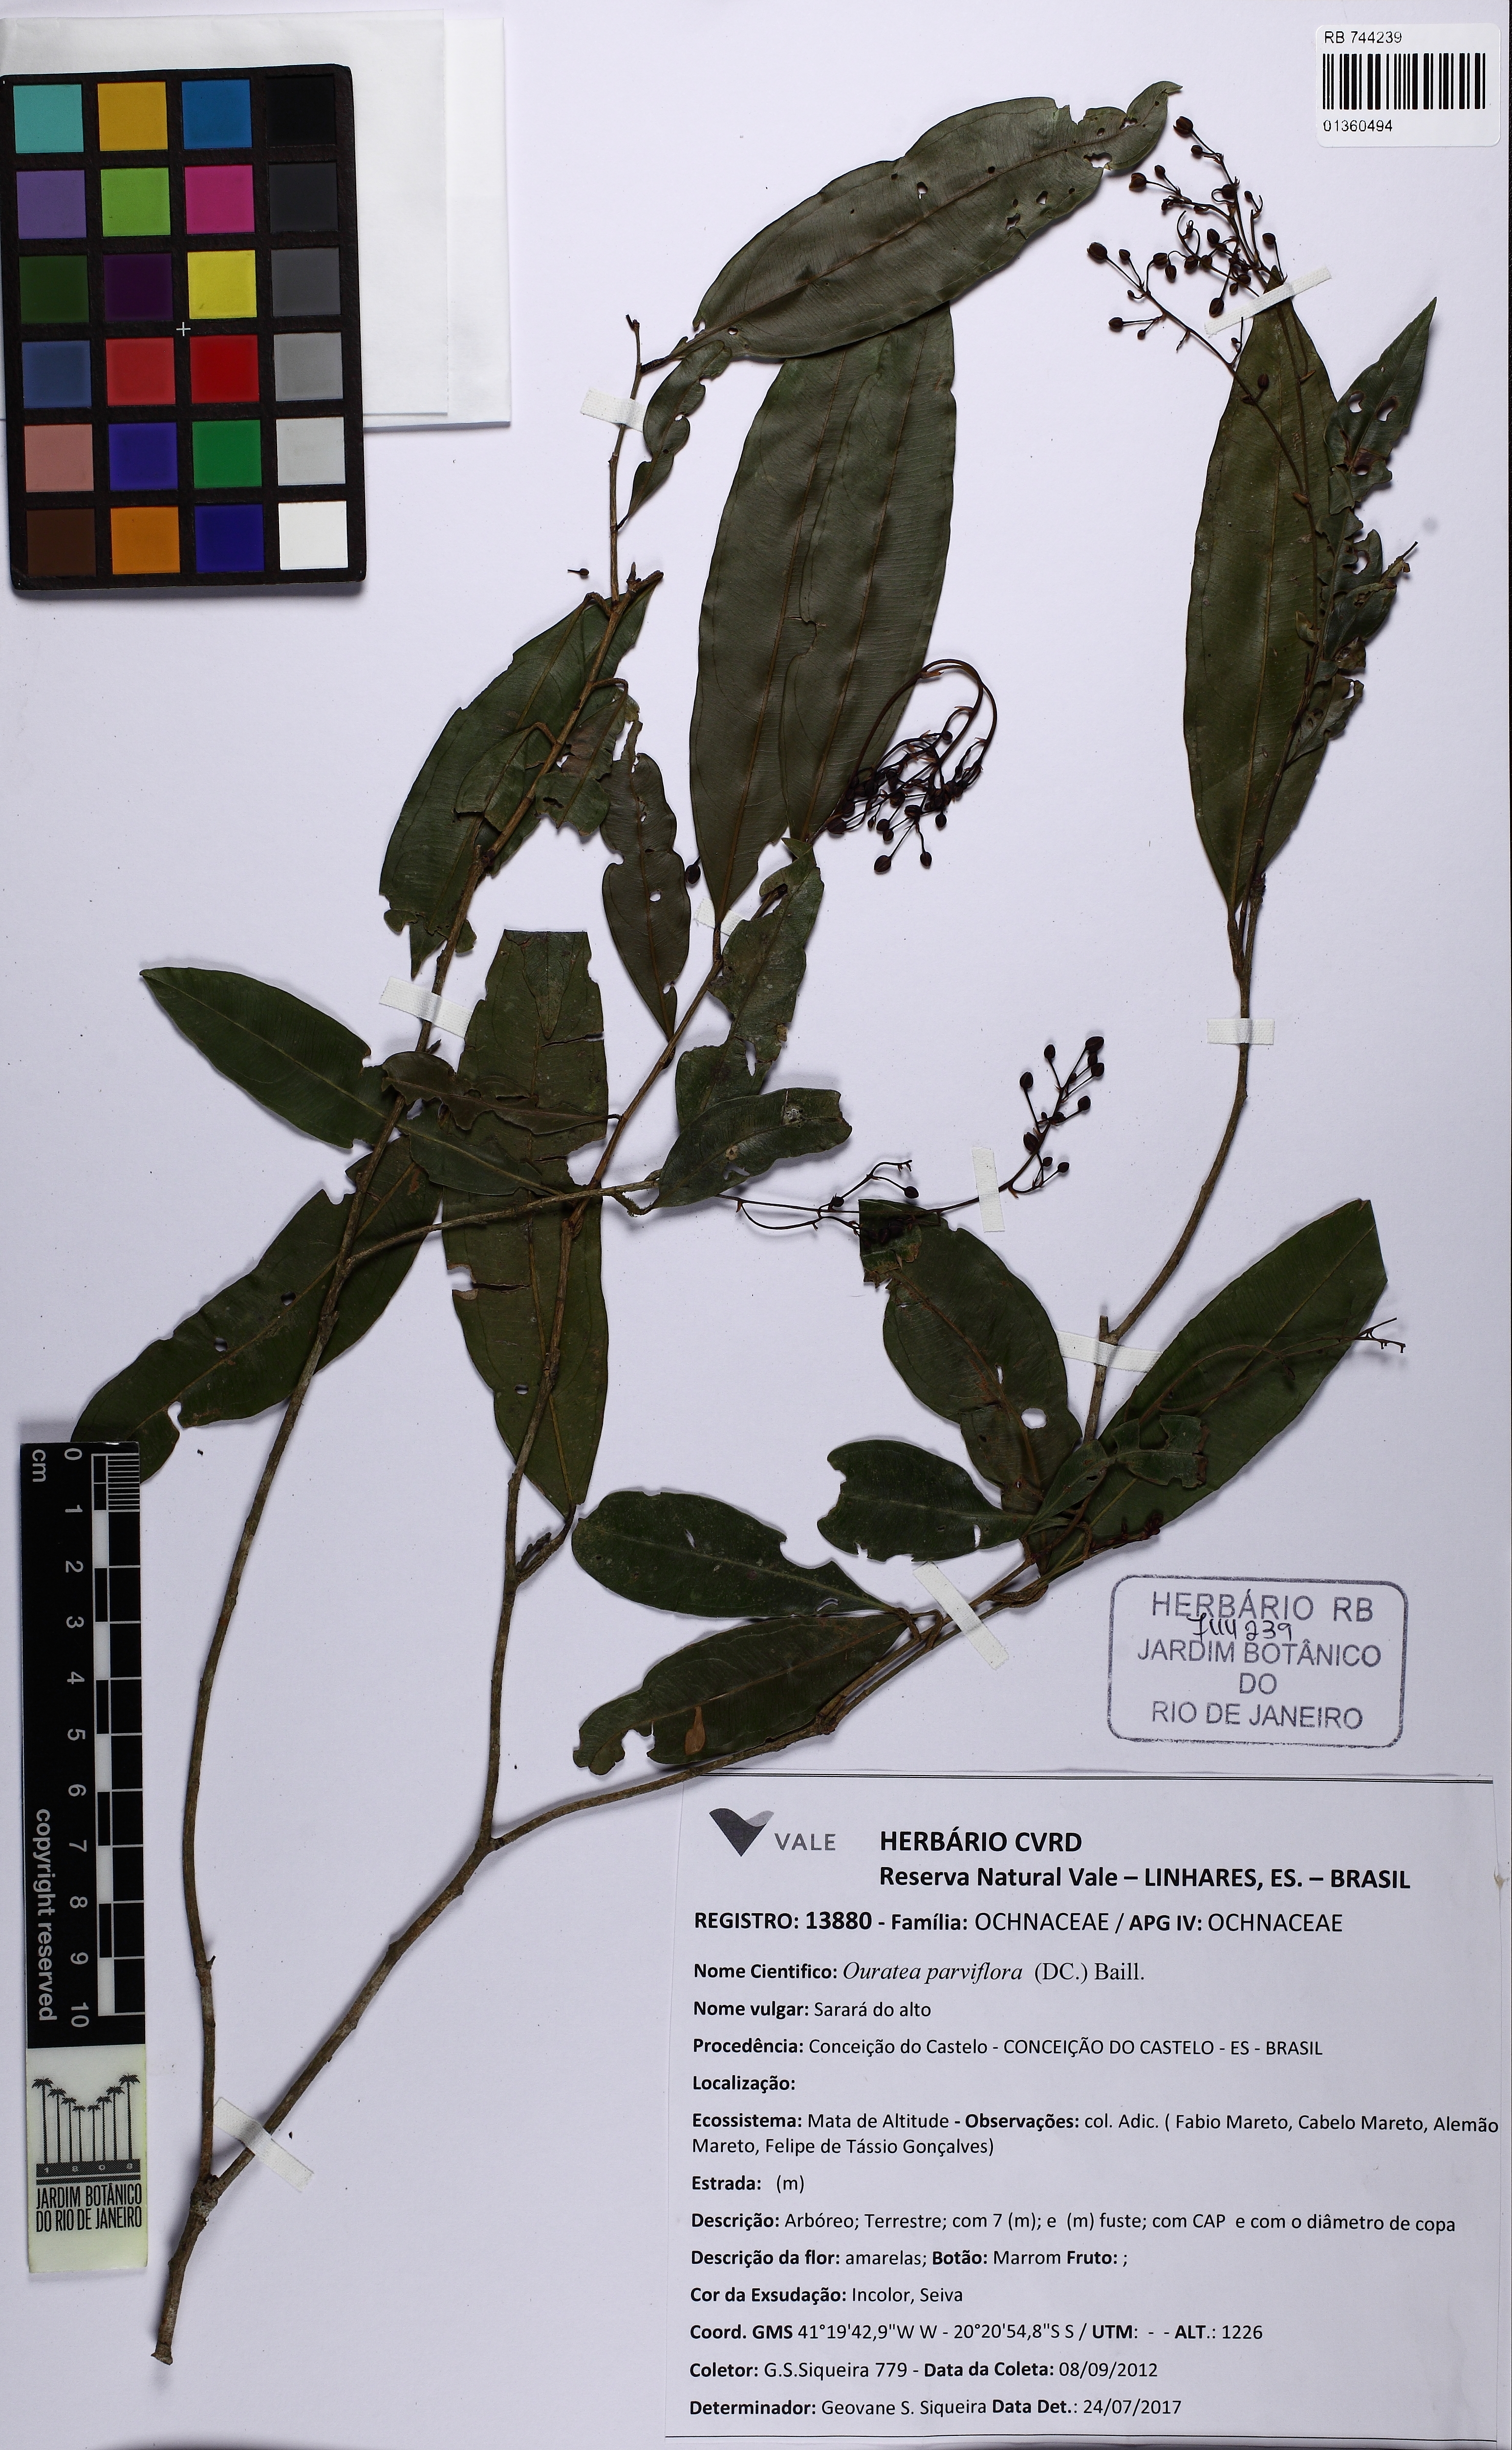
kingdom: Plantae
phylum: Tracheophyta
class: Magnoliopsida
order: Malpighiales
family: Ochnaceae
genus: Ouratea
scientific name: Ouratea parviflora
